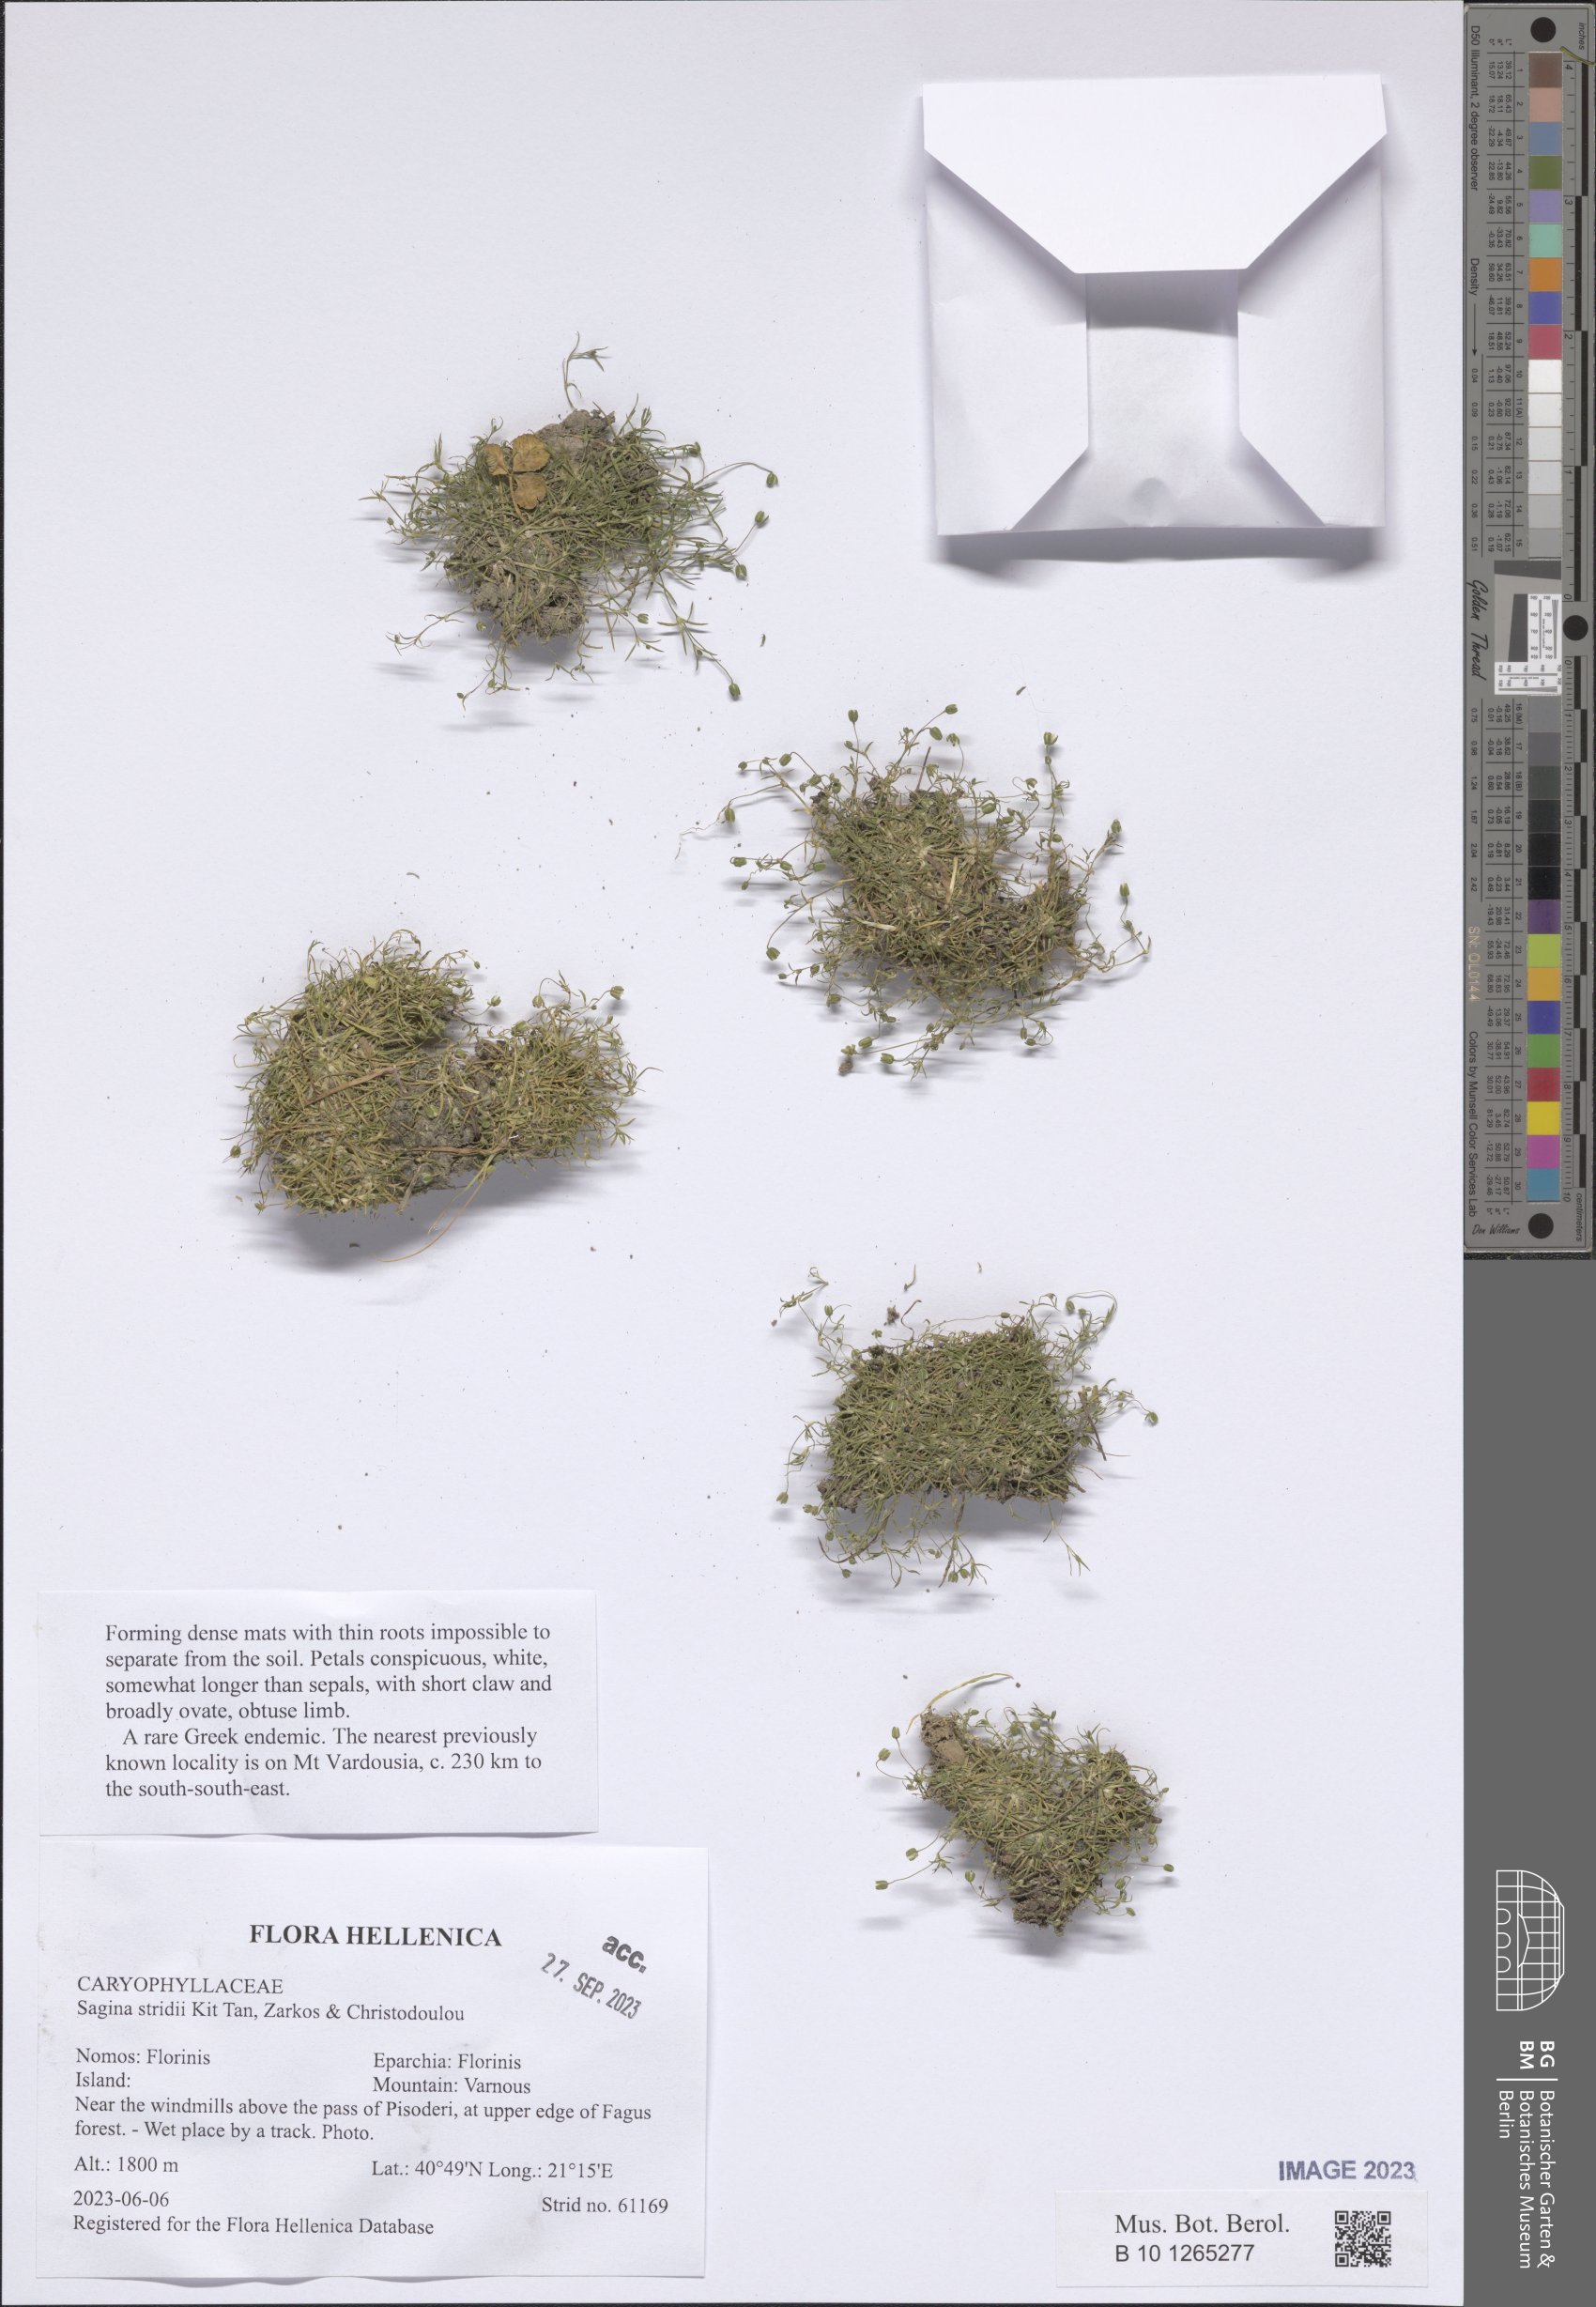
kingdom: Plantae
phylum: Tracheophyta
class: Magnoliopsida
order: Caryophyllales
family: Caryophyllaceae
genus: Sagina
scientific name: Sagina stridii
